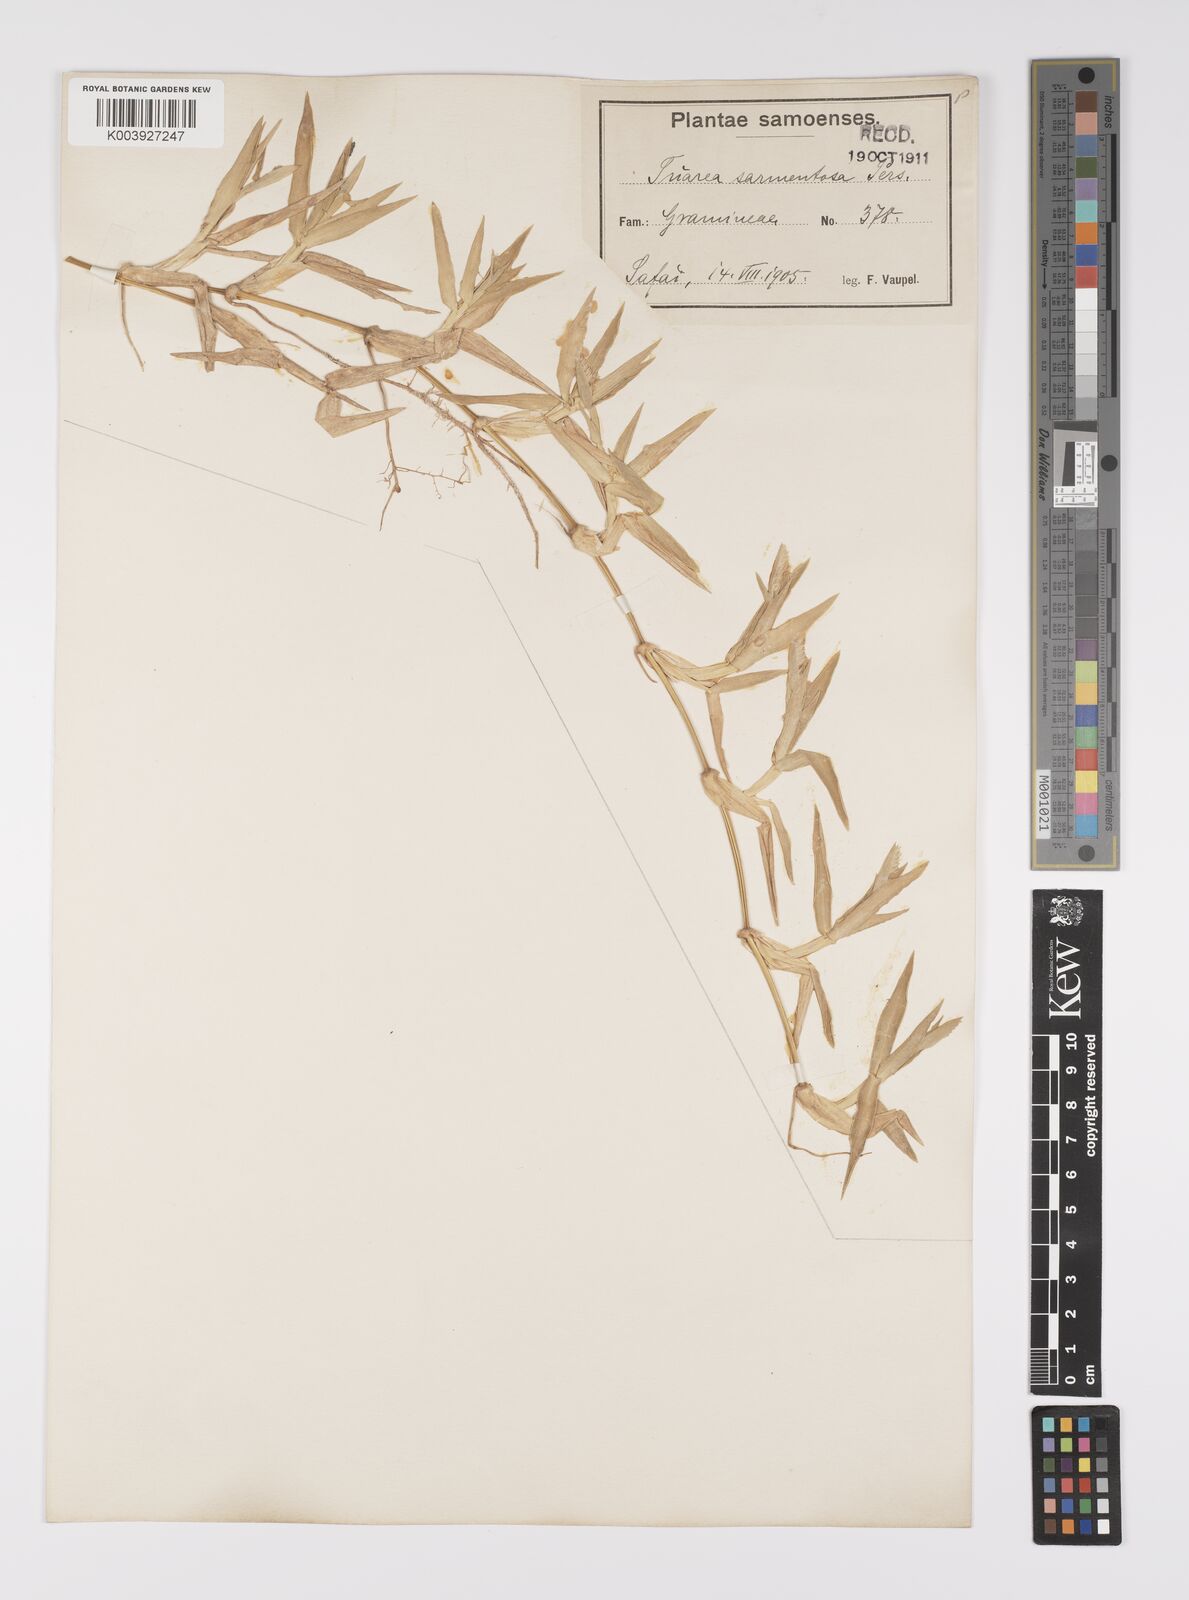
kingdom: Plantae
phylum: Tracheophyta
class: Liliopsida
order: Poales
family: Poaceae
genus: Thuarea
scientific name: Thuarea involuta
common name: Tropical beach grass
